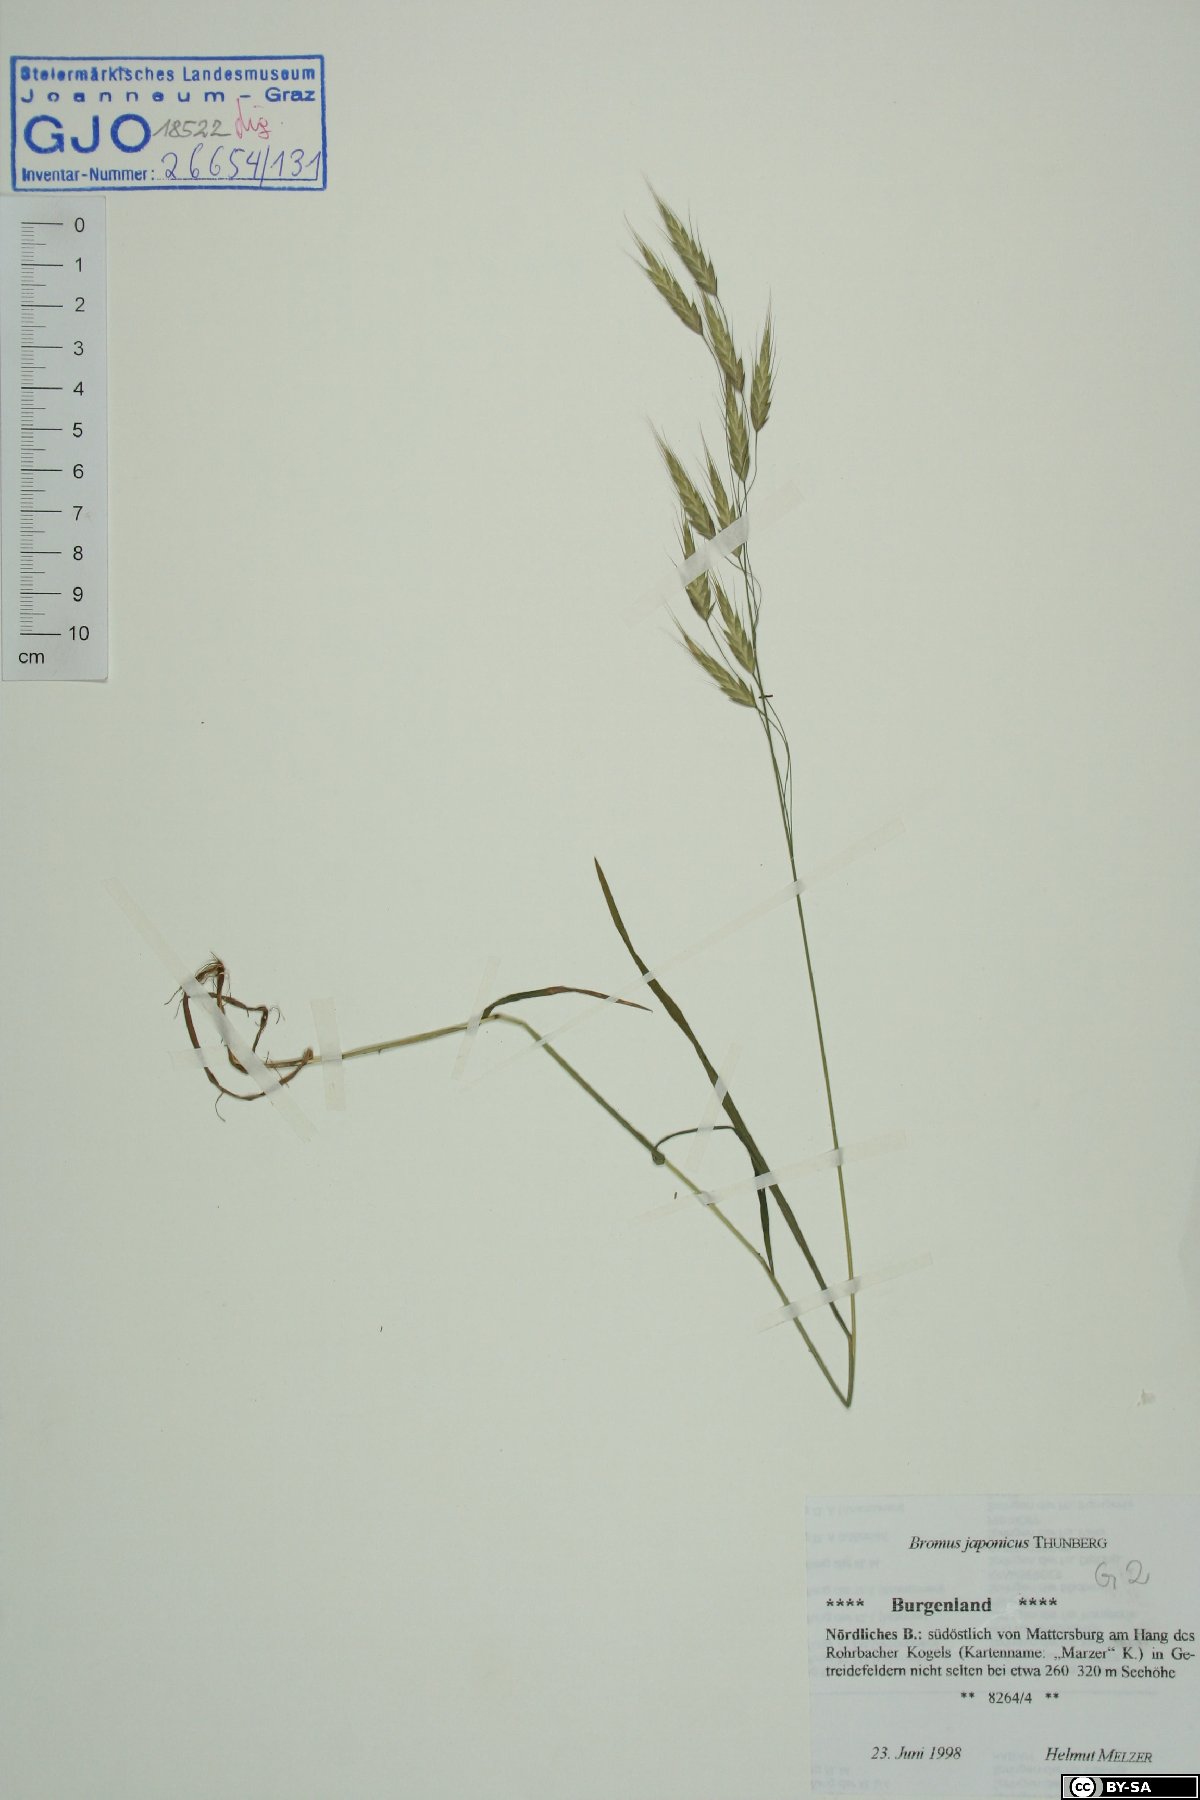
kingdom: Plantae
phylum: Tracheophyta
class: Liliopsida
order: Poales
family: Poaceae
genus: Bromus
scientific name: Bromus japonicus
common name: Japanese brome
